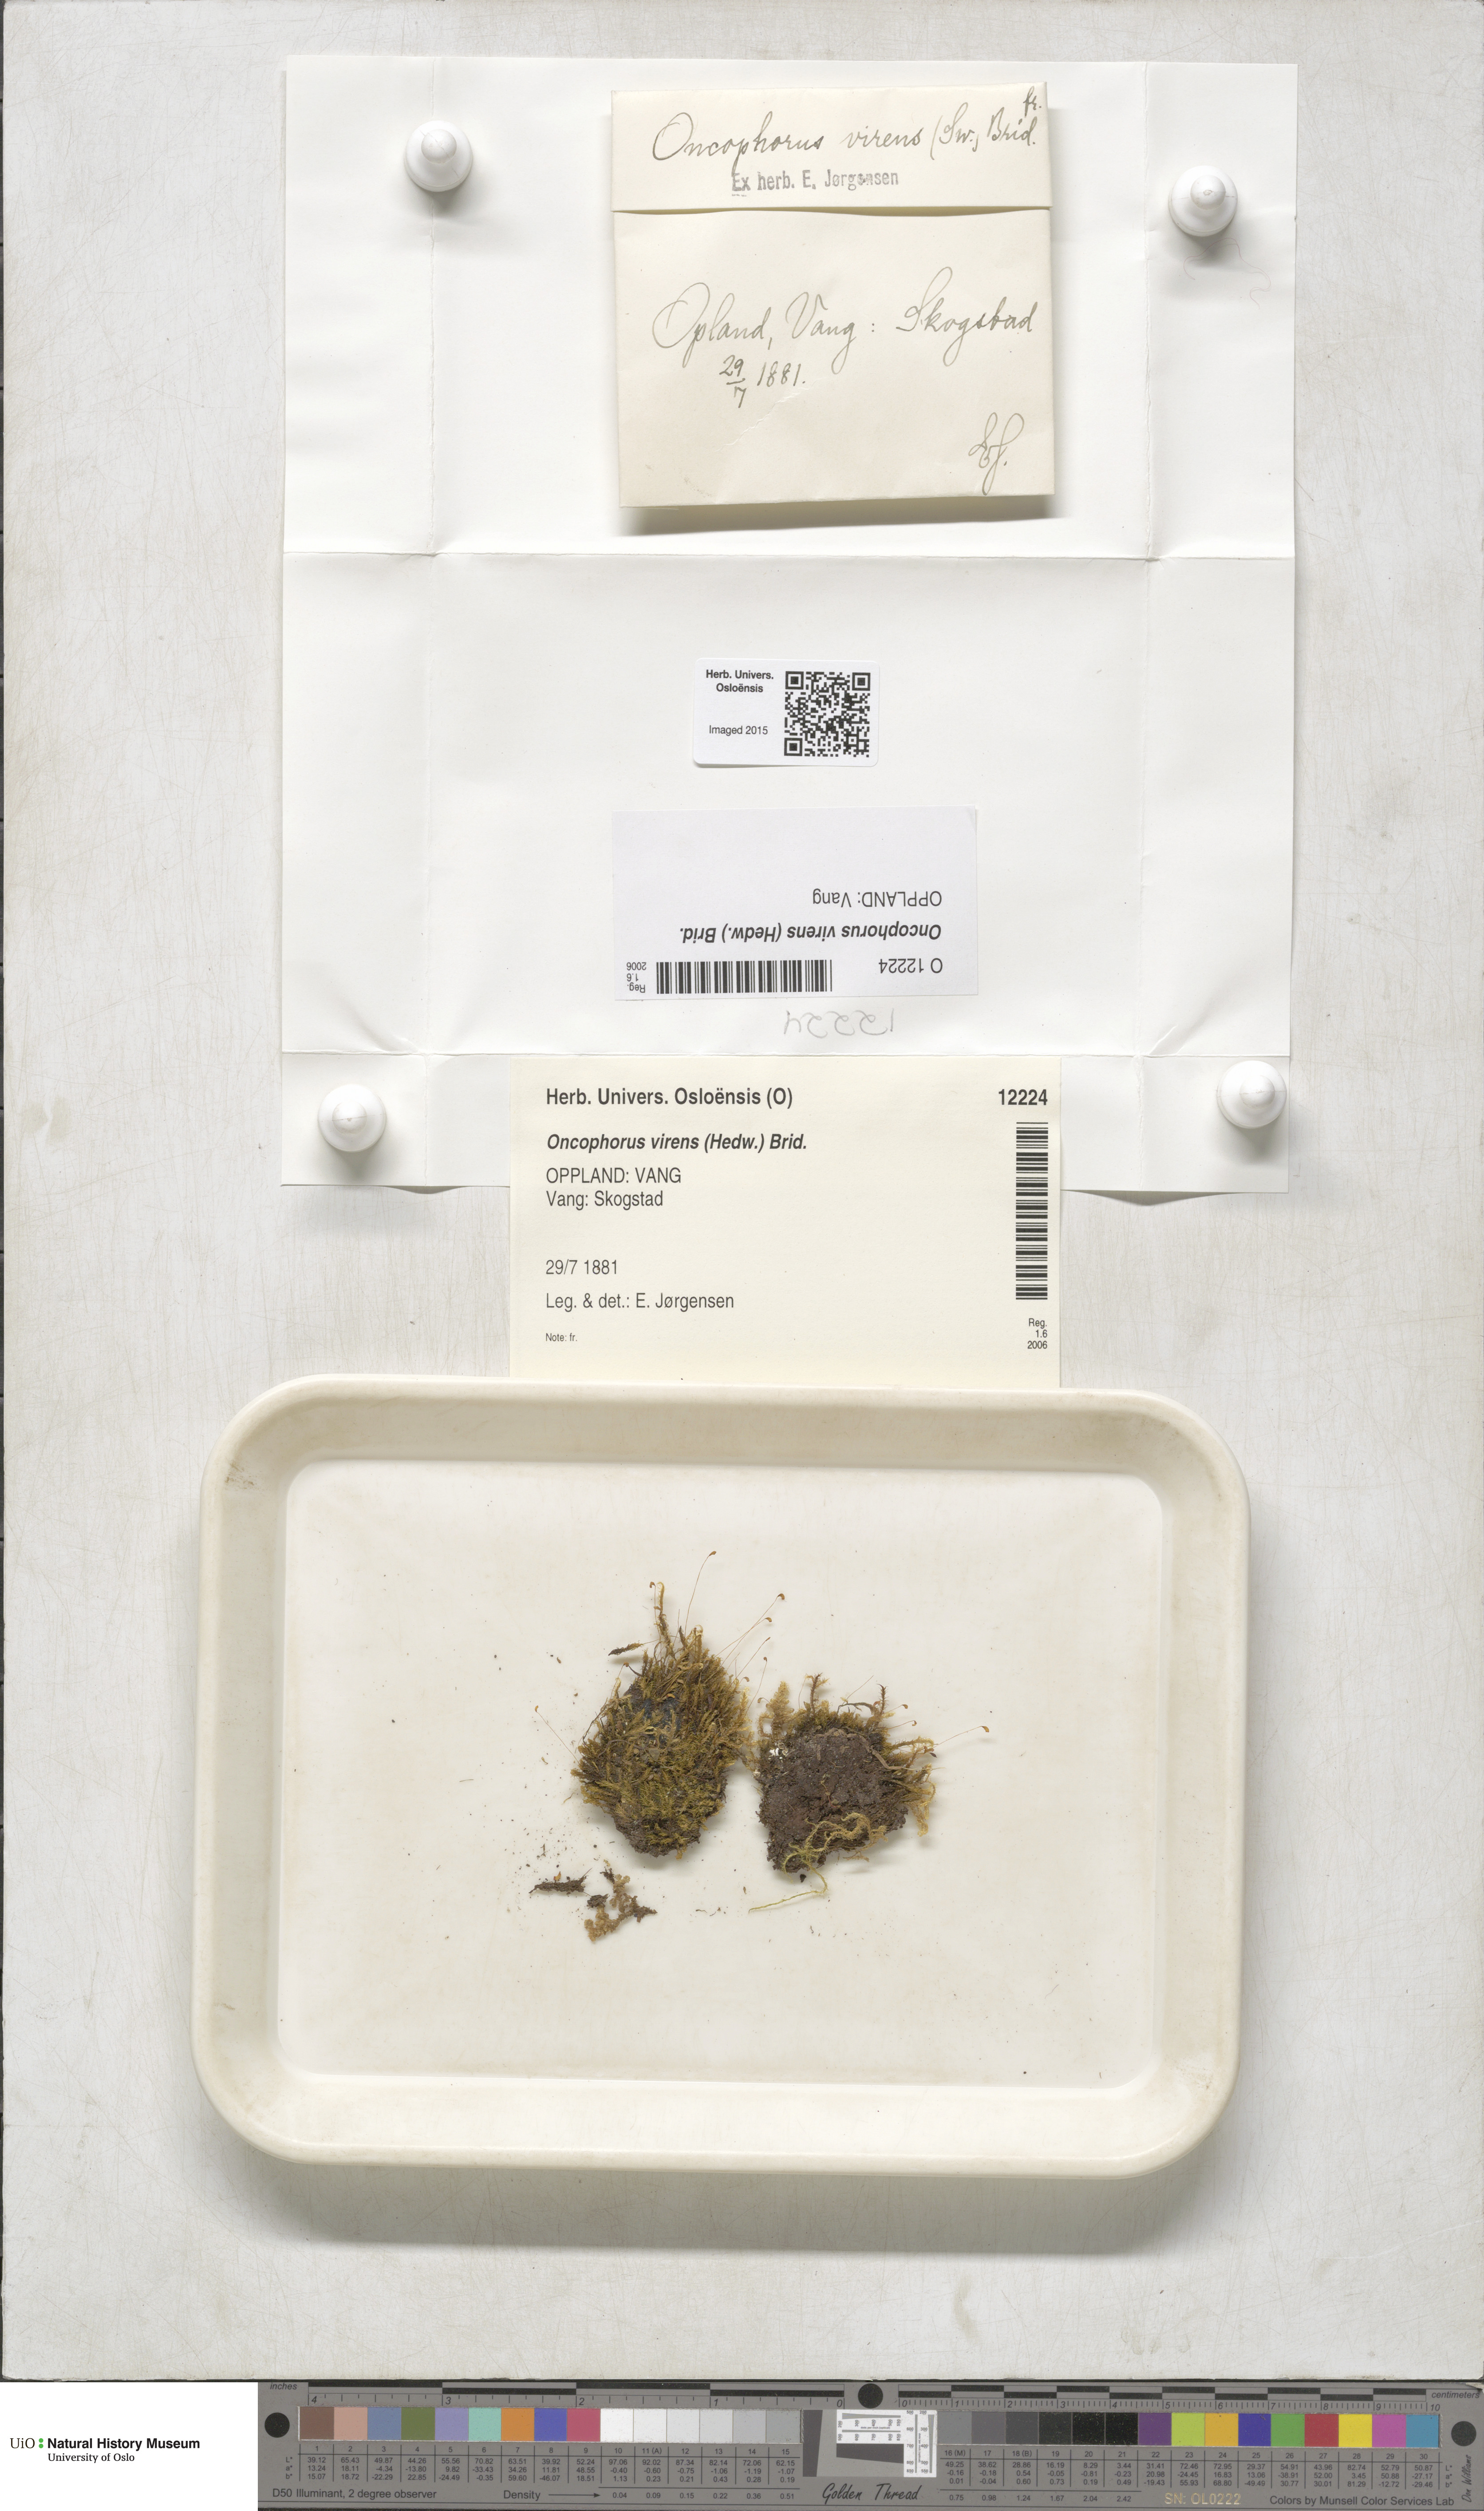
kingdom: Plantae
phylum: Bryophyta
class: Bryopsida
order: Dicranales
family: Rhabdoweisiaceae
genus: Oncophorus
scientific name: Oncophorus virens
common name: Green spur moss
